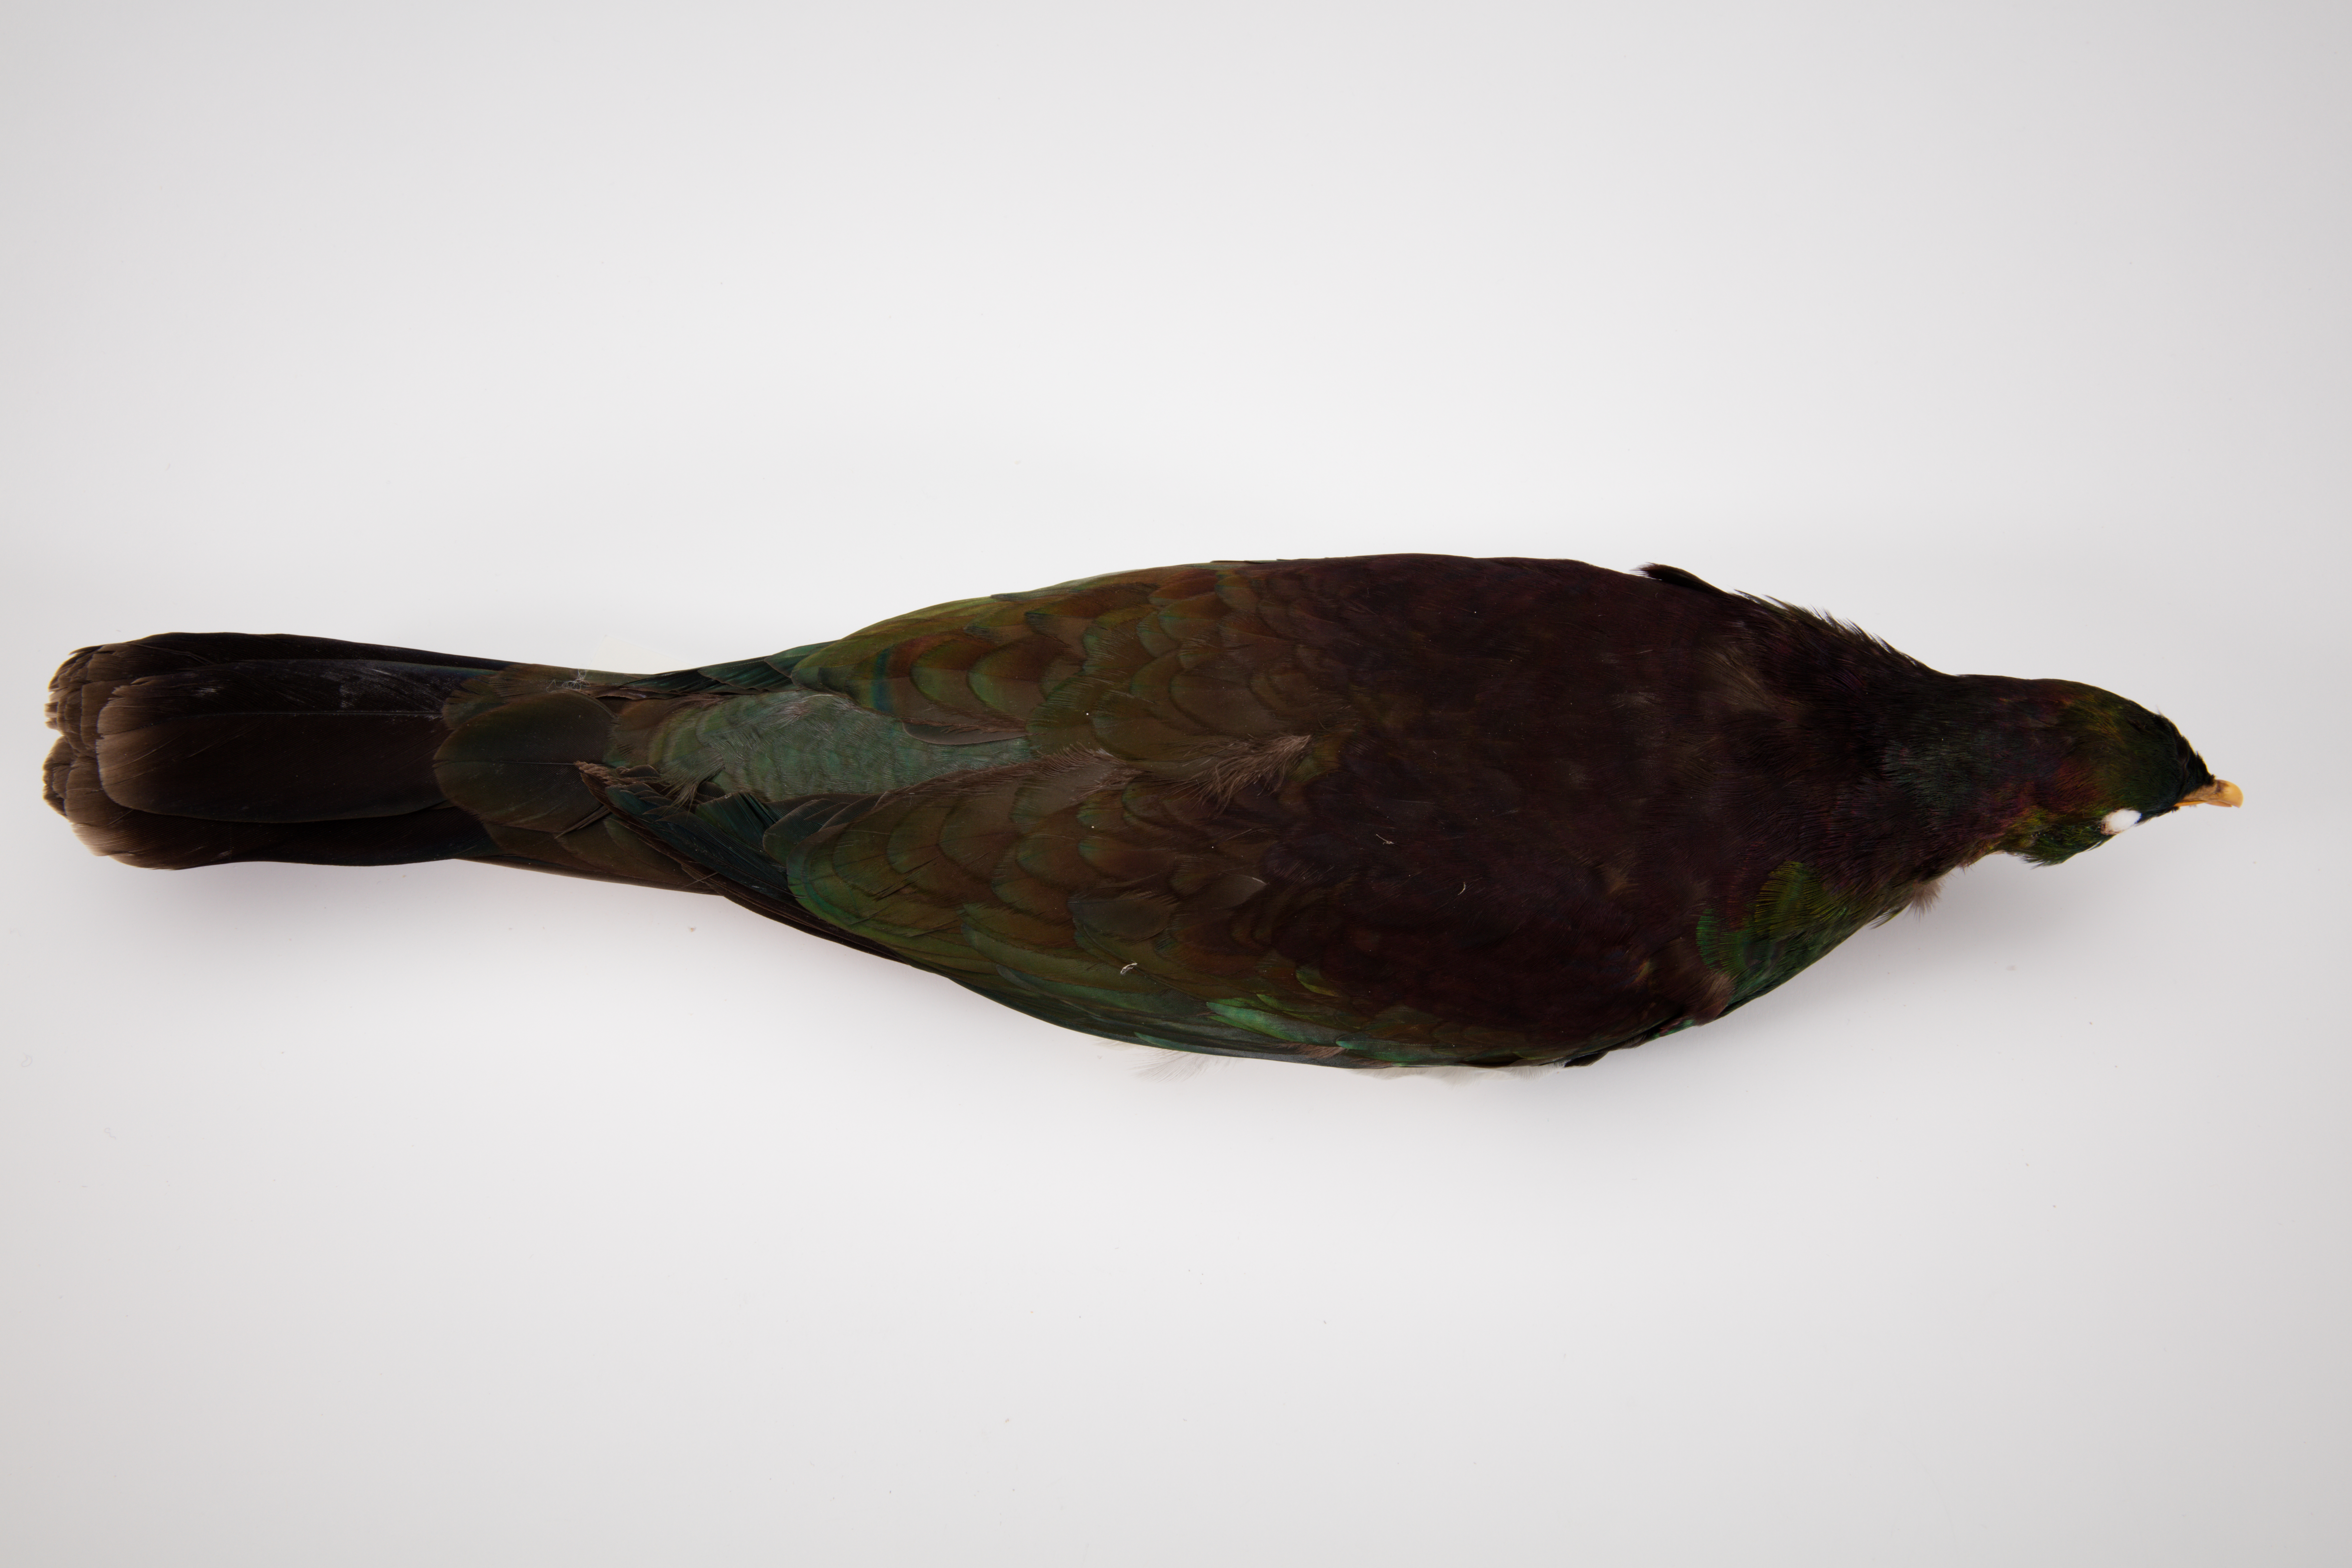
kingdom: Animalia
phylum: Chordata
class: Aves
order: Columbiformes
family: Columbidae
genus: Hemiphaga
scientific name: Hemiphaga novaeseelandiae
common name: New zealand pigeon
